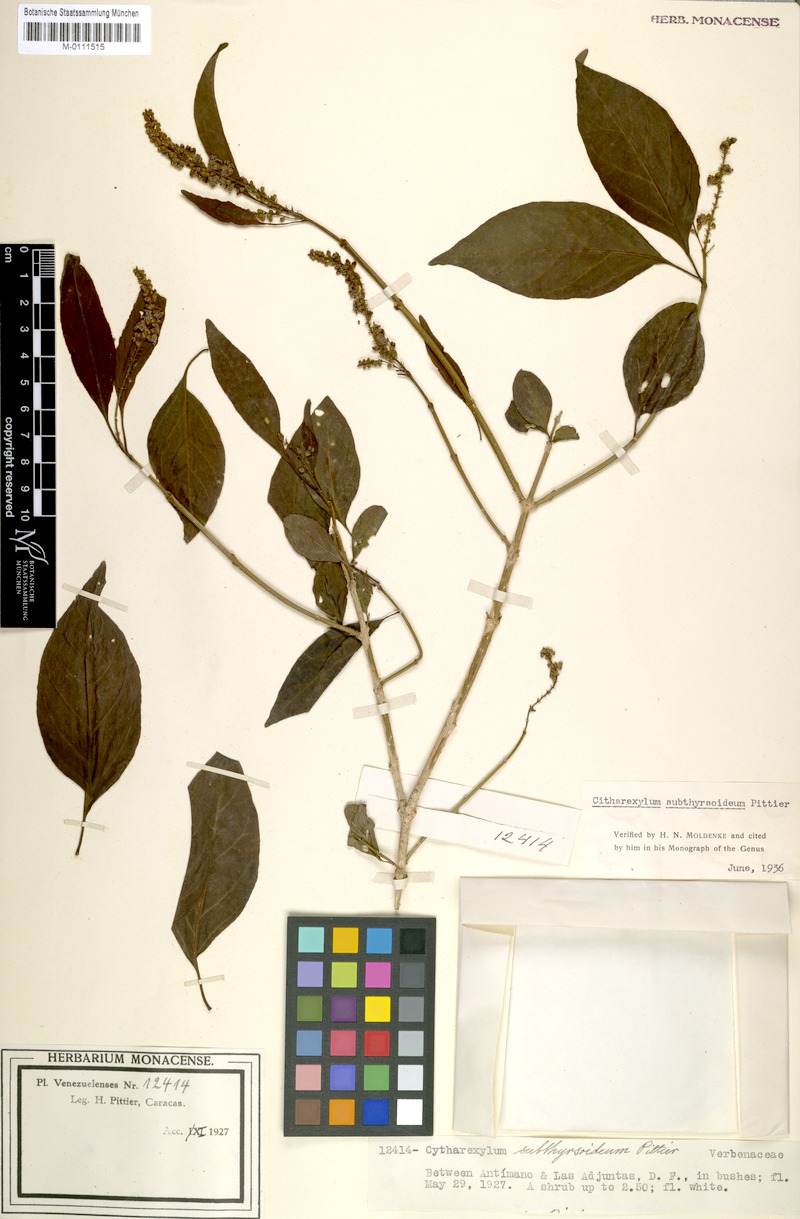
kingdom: Plantae
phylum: Tracheophyta
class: Magnoliopsida
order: Lamiales
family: Verbenaceae
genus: Citharexylum
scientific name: Citharexylum subthyrsoideum
